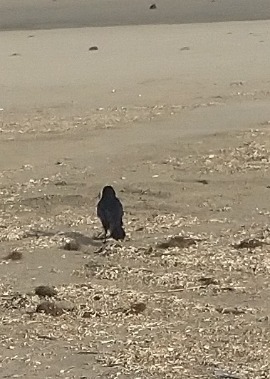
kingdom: Animalia
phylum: Chordata
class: Aves
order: Passeriformes
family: Corvidae
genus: Corvus
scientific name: Corvus corone
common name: Sortkrage
